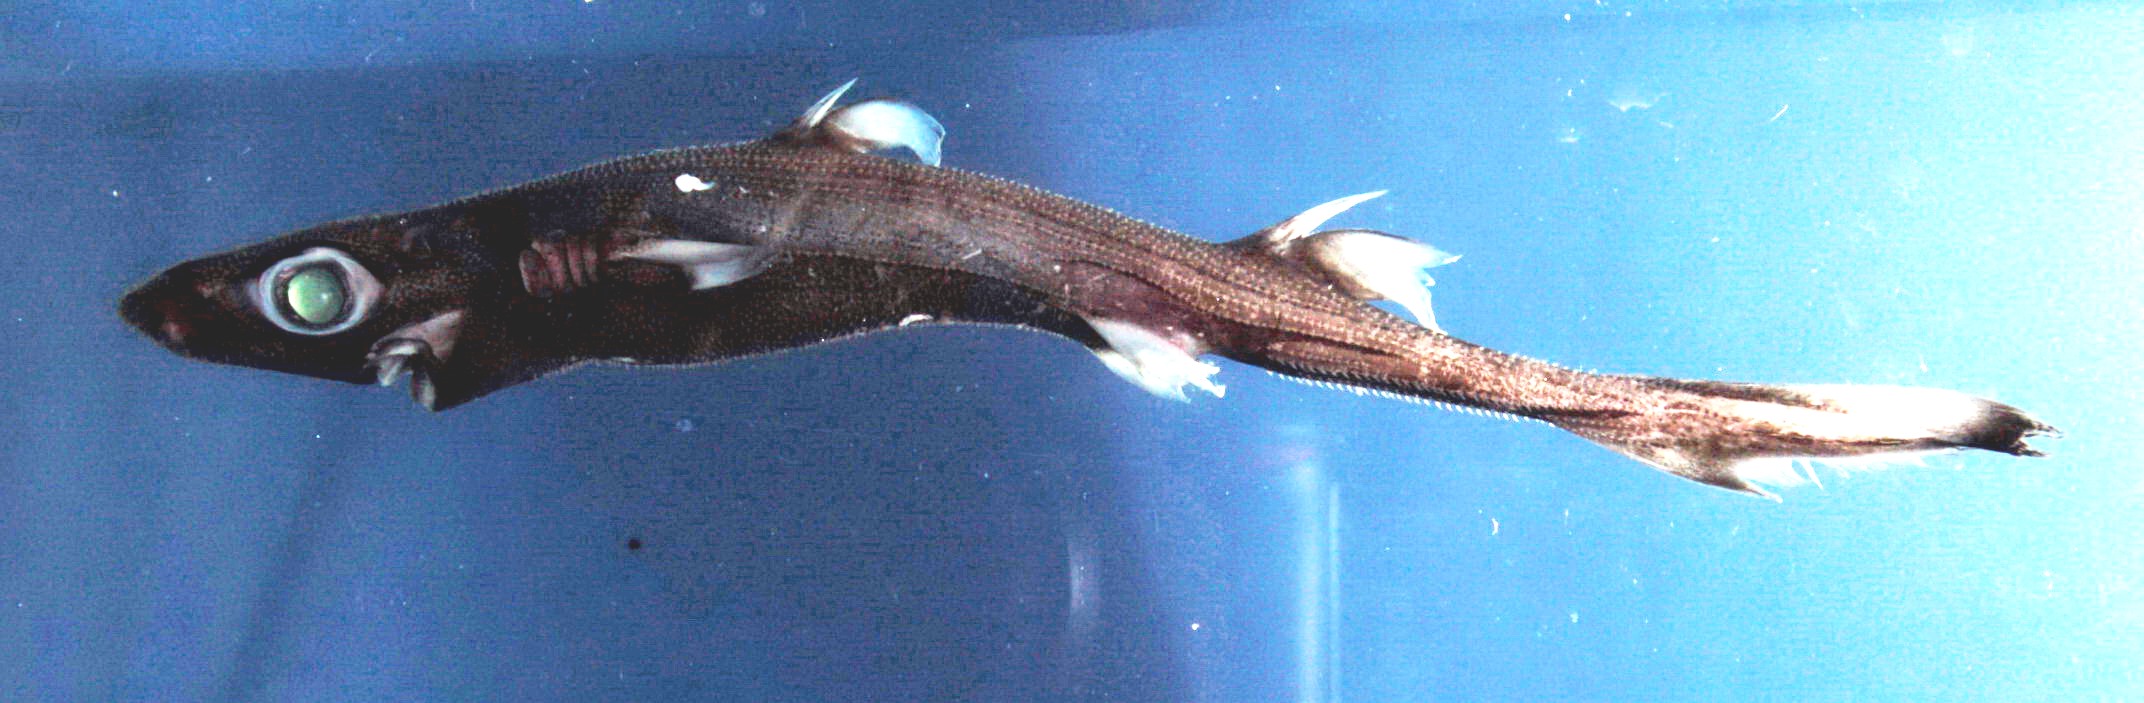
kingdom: Animalia
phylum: Chordata
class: Elasmobranchii
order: Squaliformes
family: Etmopteridae
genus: Etmopterus
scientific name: Etmopterus alphus
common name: Whitecheek lanternshark
